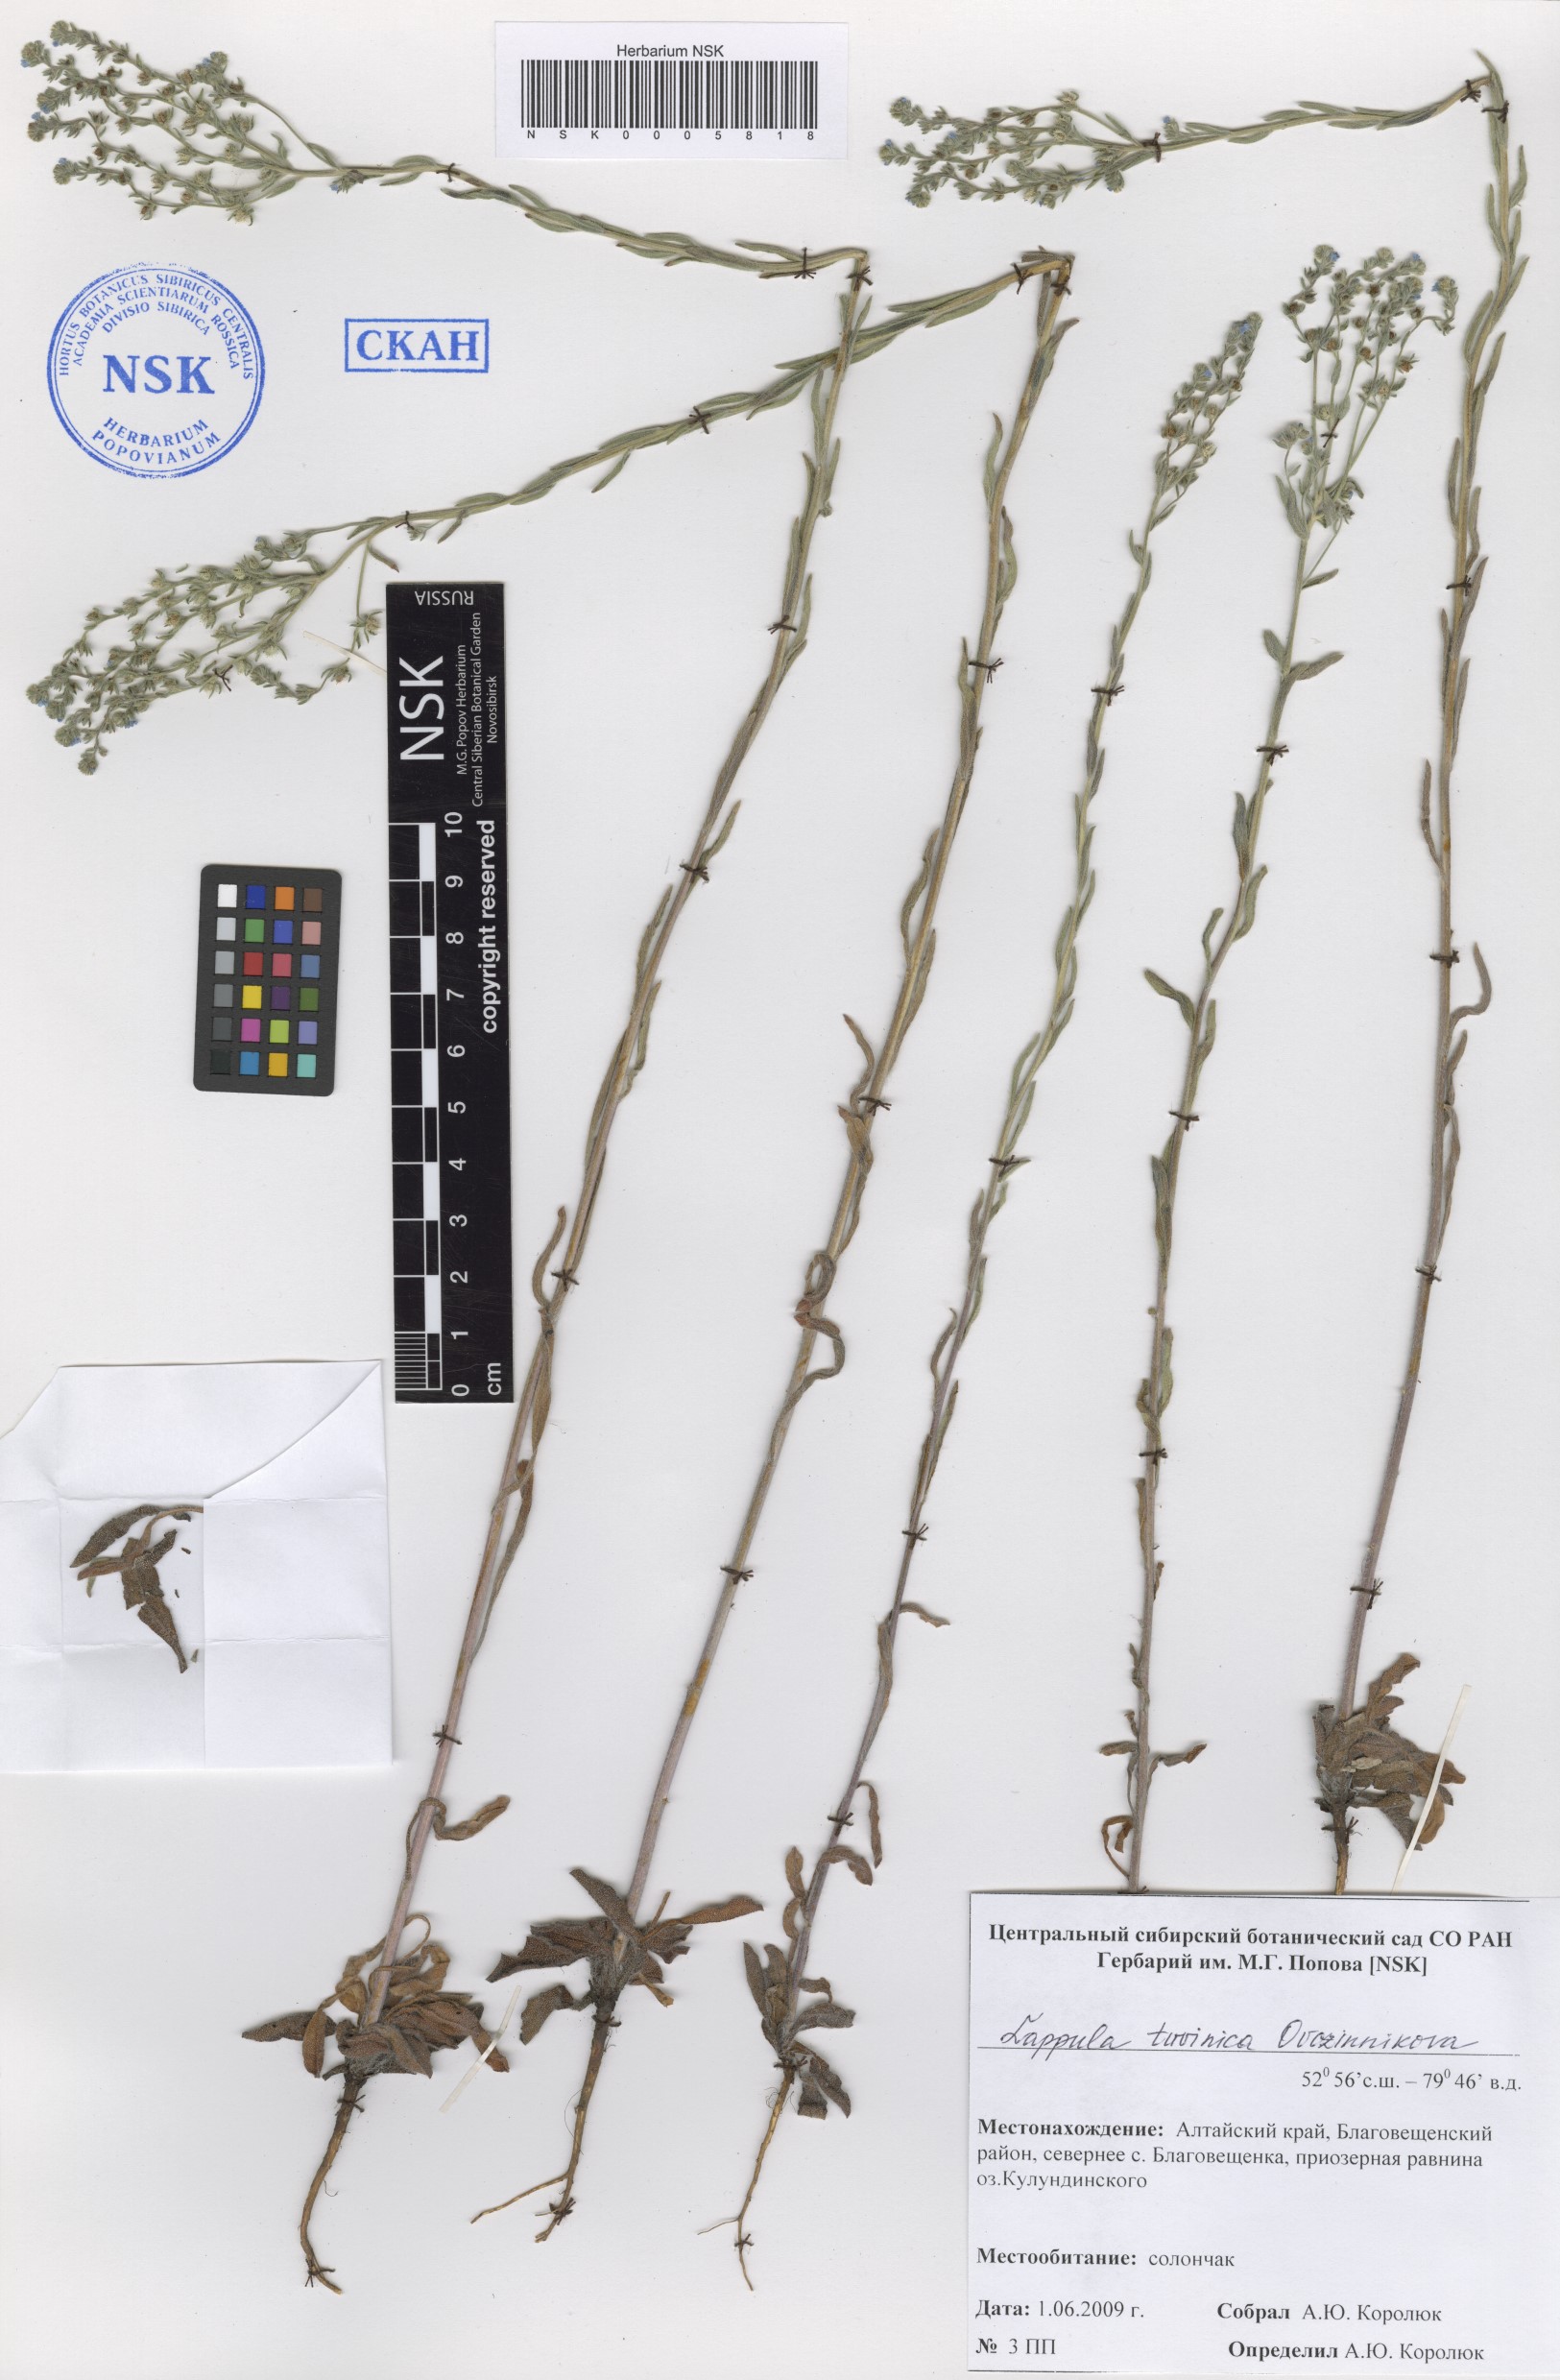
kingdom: Plantae
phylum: Tracheophyta
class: Magnoliopsida
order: Boraginales
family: Boraginaceae
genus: Lappula
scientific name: Lappula tuvinica
